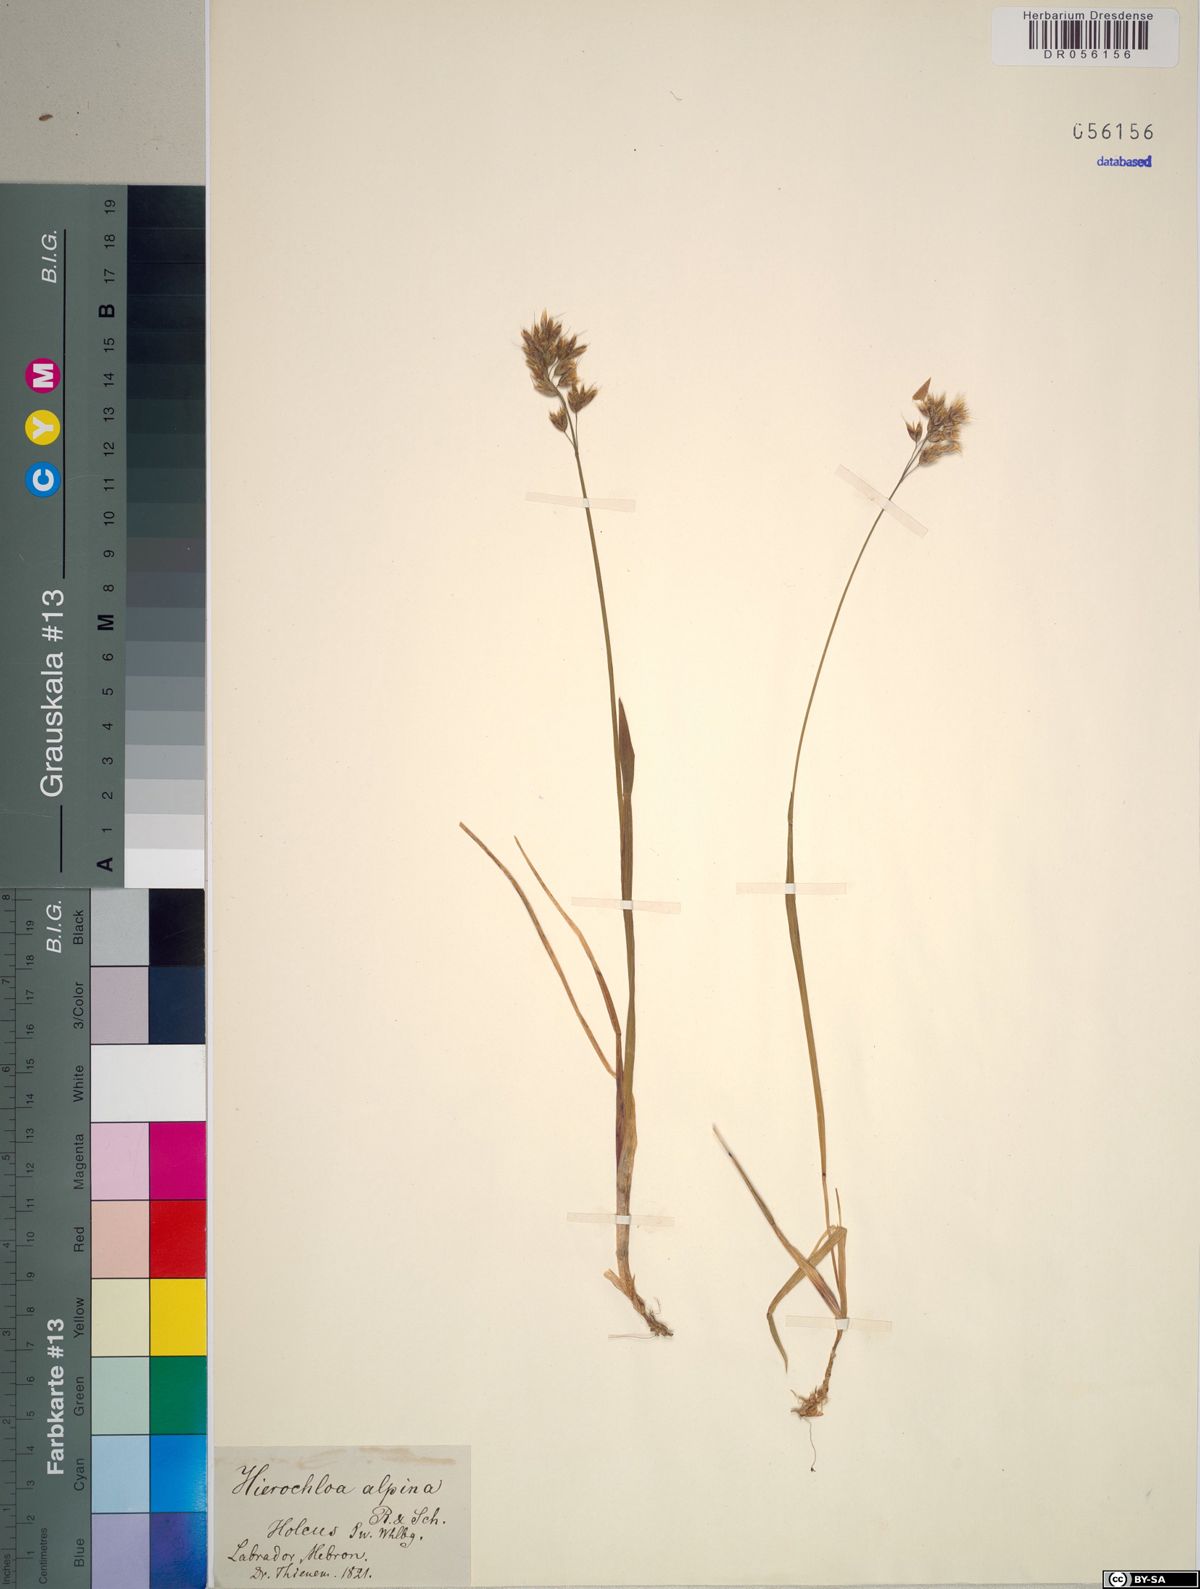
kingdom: Plantae
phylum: Tracheophyta
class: Liliopsida
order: Poales
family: Poaceae
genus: Anthoxanthum
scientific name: Anthoxanthum monticola
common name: Alpine sweetgrass
